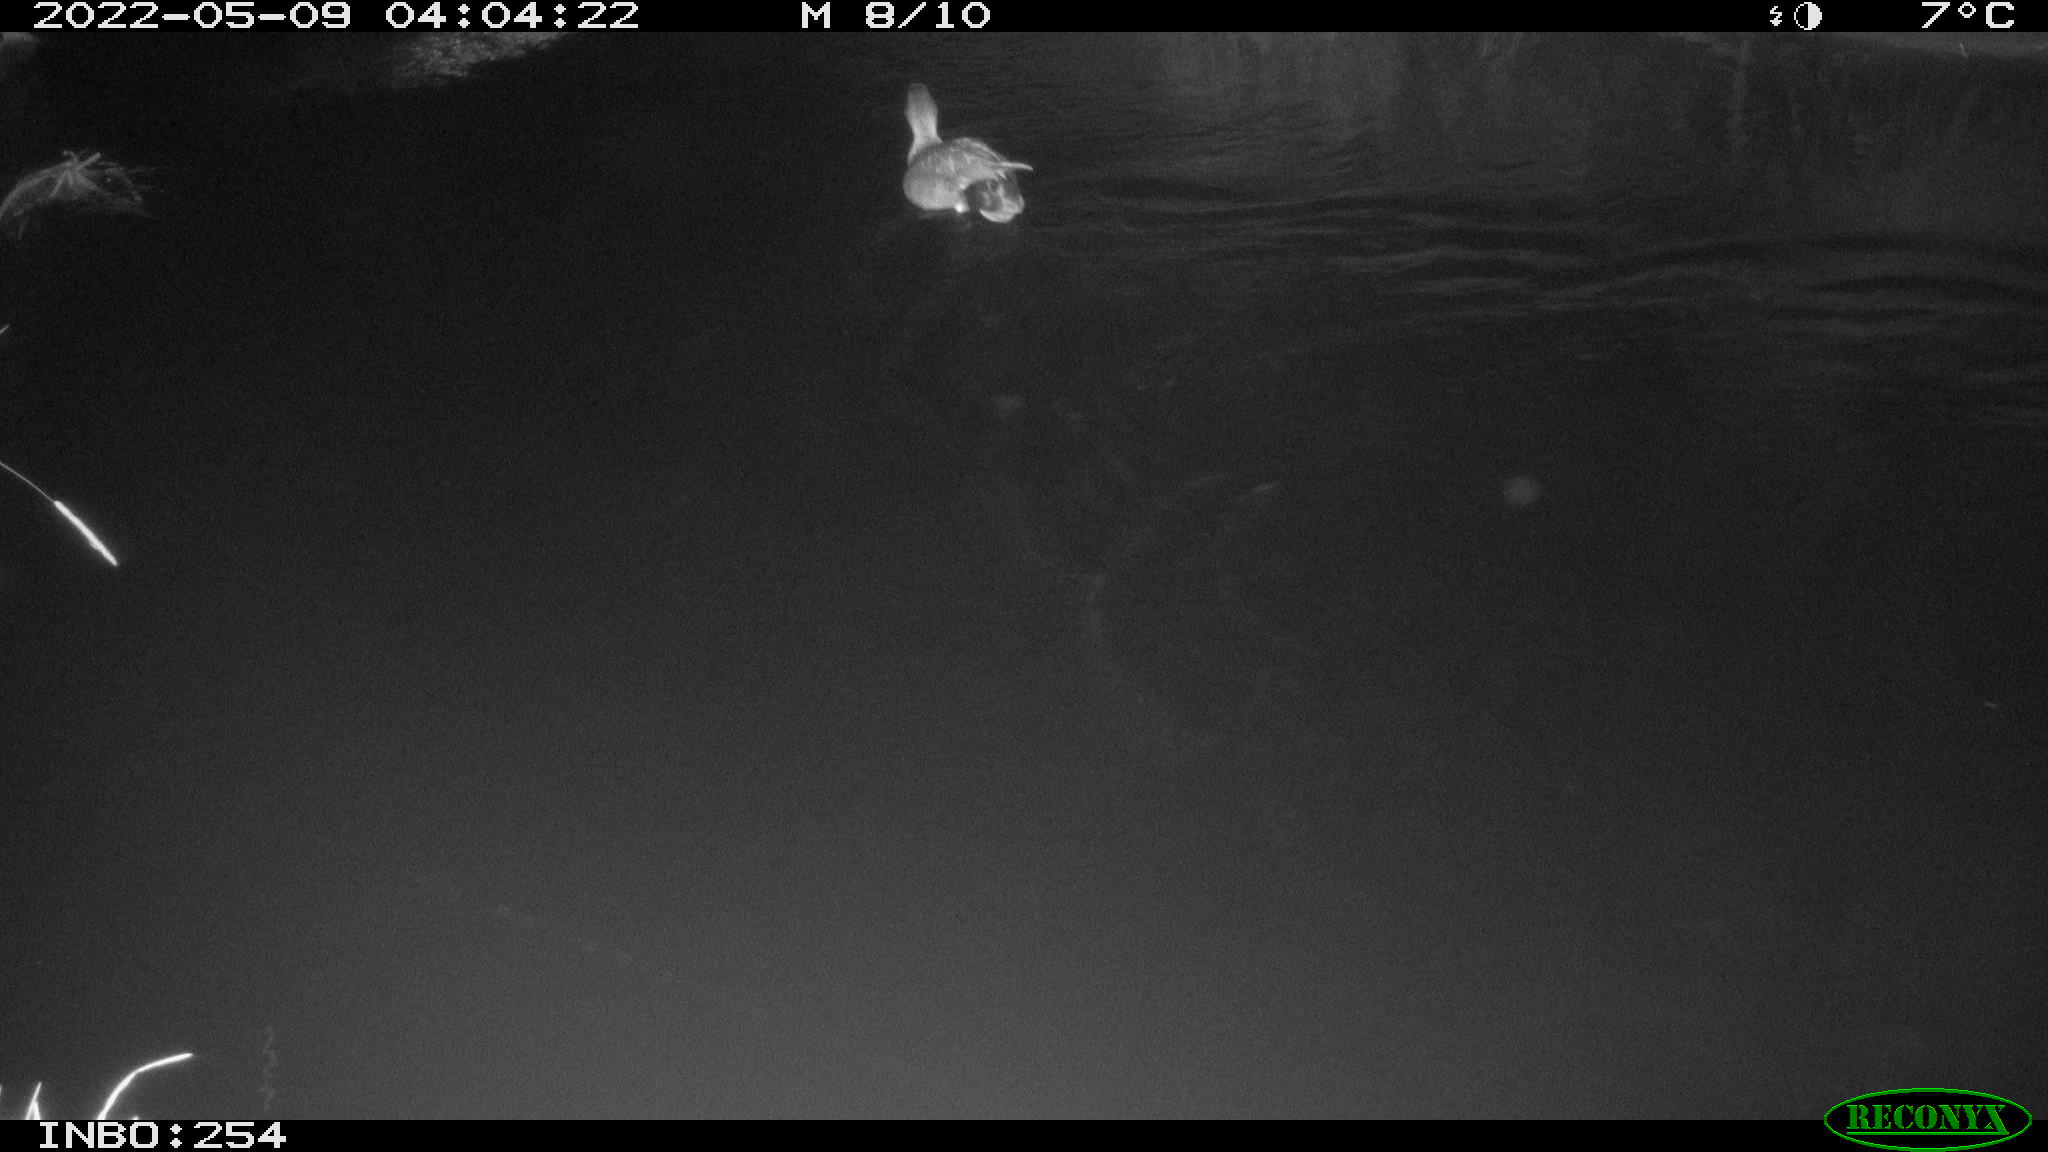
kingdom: Animalia
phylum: Chordata
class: Aves
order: Anseriformes
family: Anatidae
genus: Mareca
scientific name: Mareca strepera
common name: Gadwall
